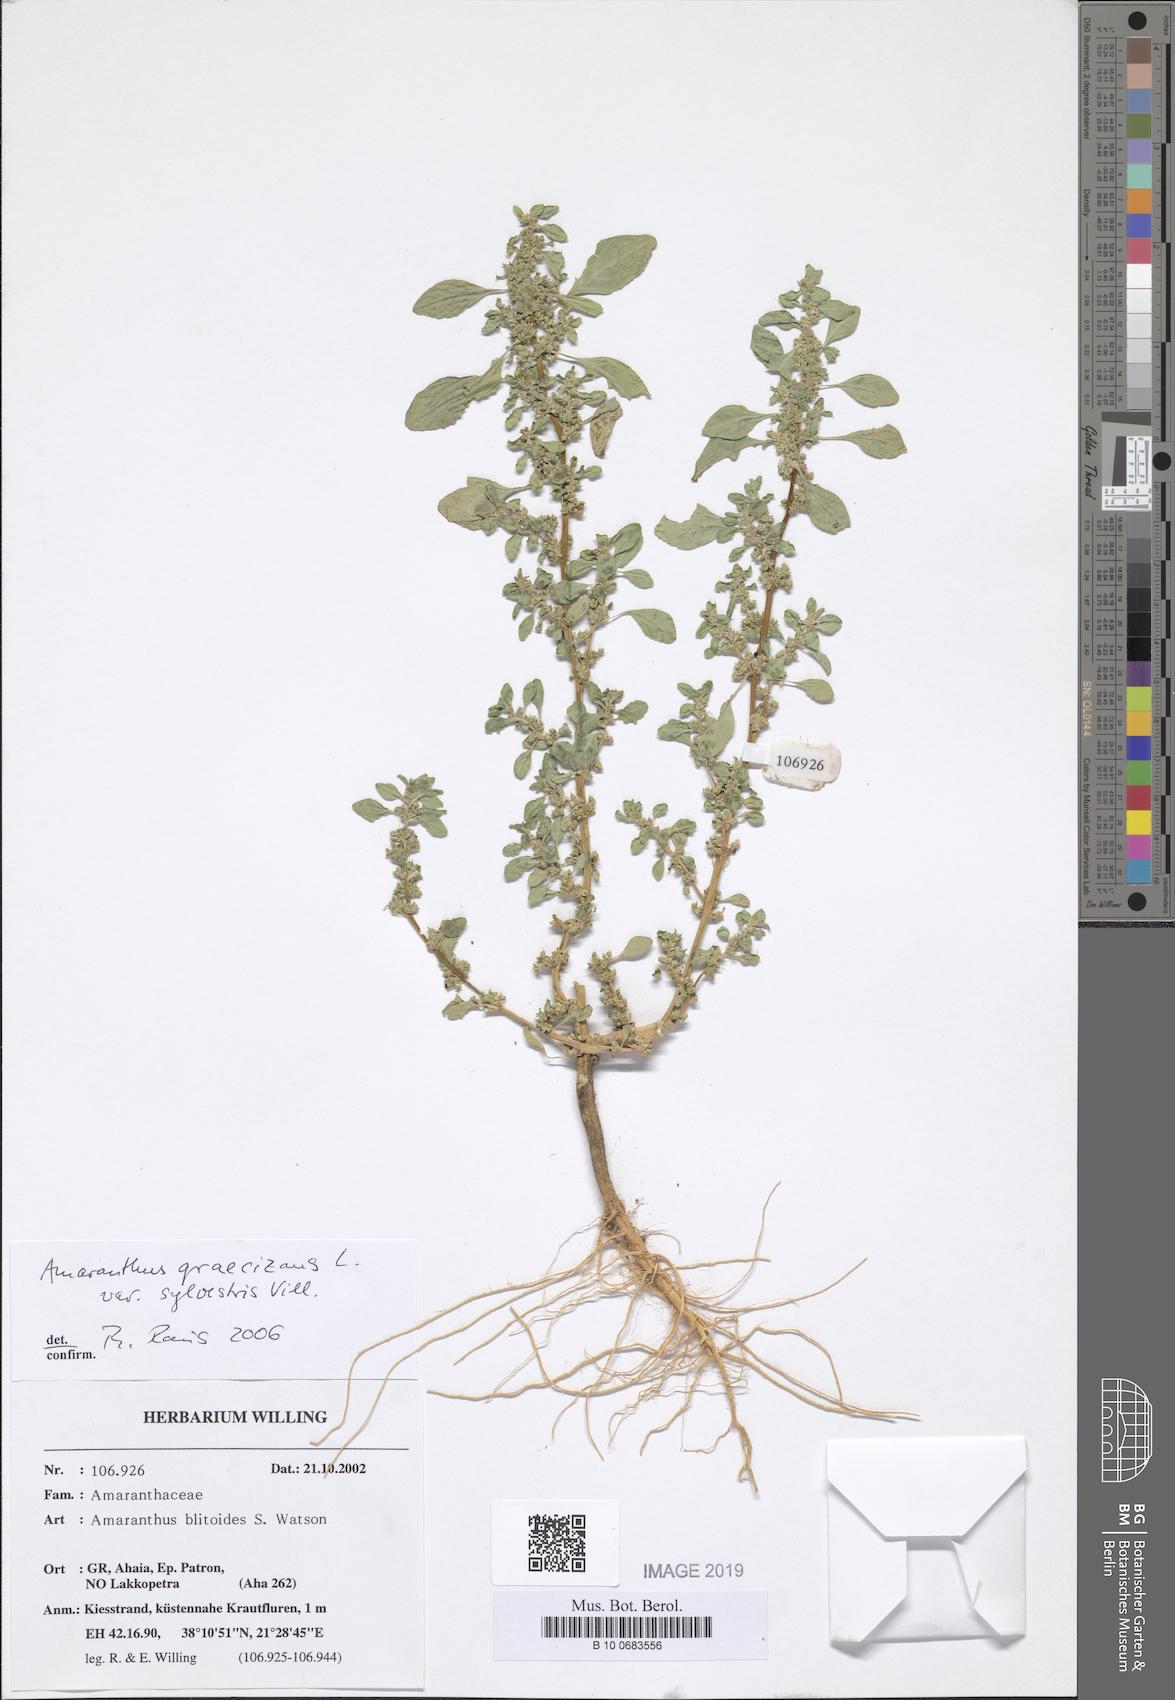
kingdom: Plantae
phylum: Tracheophyta
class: Magnoliopsida
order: Caryophyllales
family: Amaranthaceae
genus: Amaranthus
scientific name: Amaranthus graecizans
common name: Mediterranean amaranth
